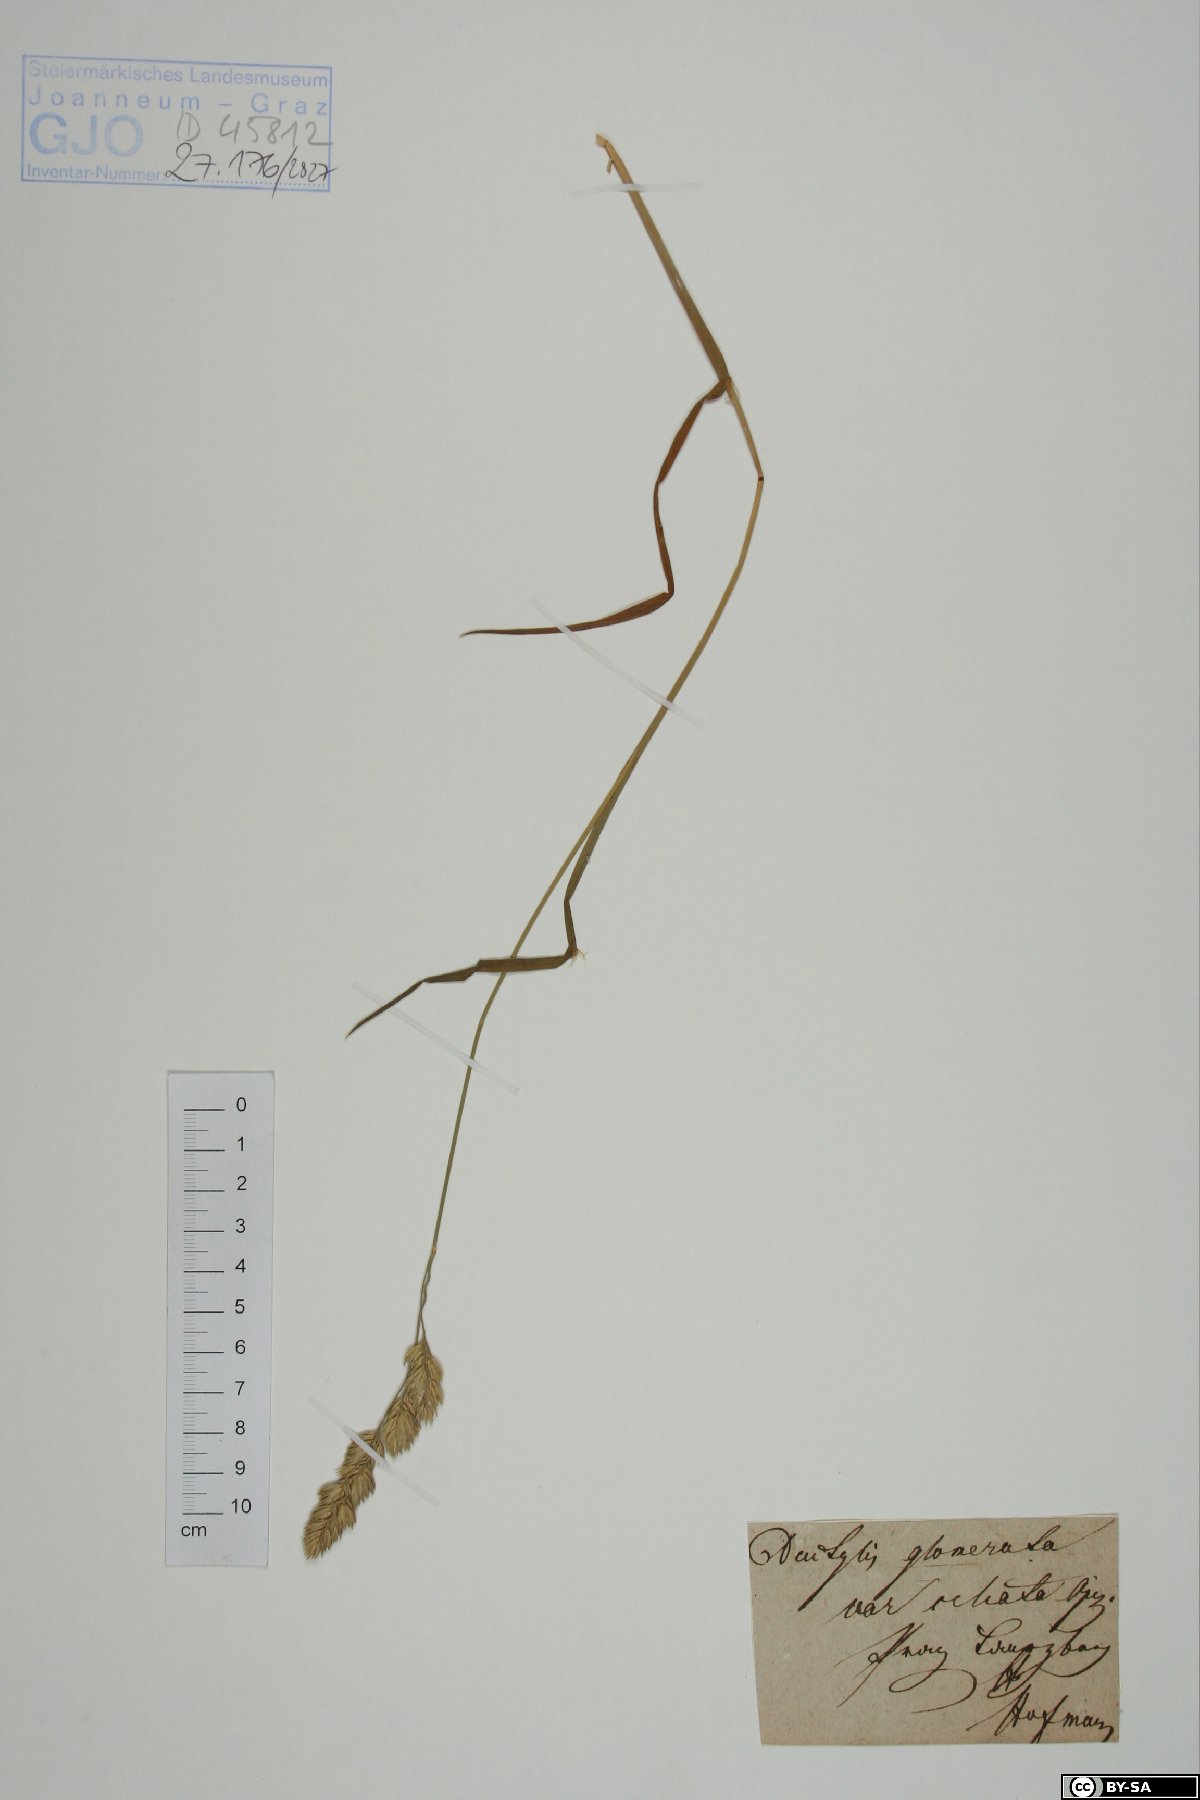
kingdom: Plantae
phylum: Tracheophyta
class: Liliopsida
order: Poales
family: Poaceae
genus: Dactylis
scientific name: Dactylis glomerata
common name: Orchardgrass
